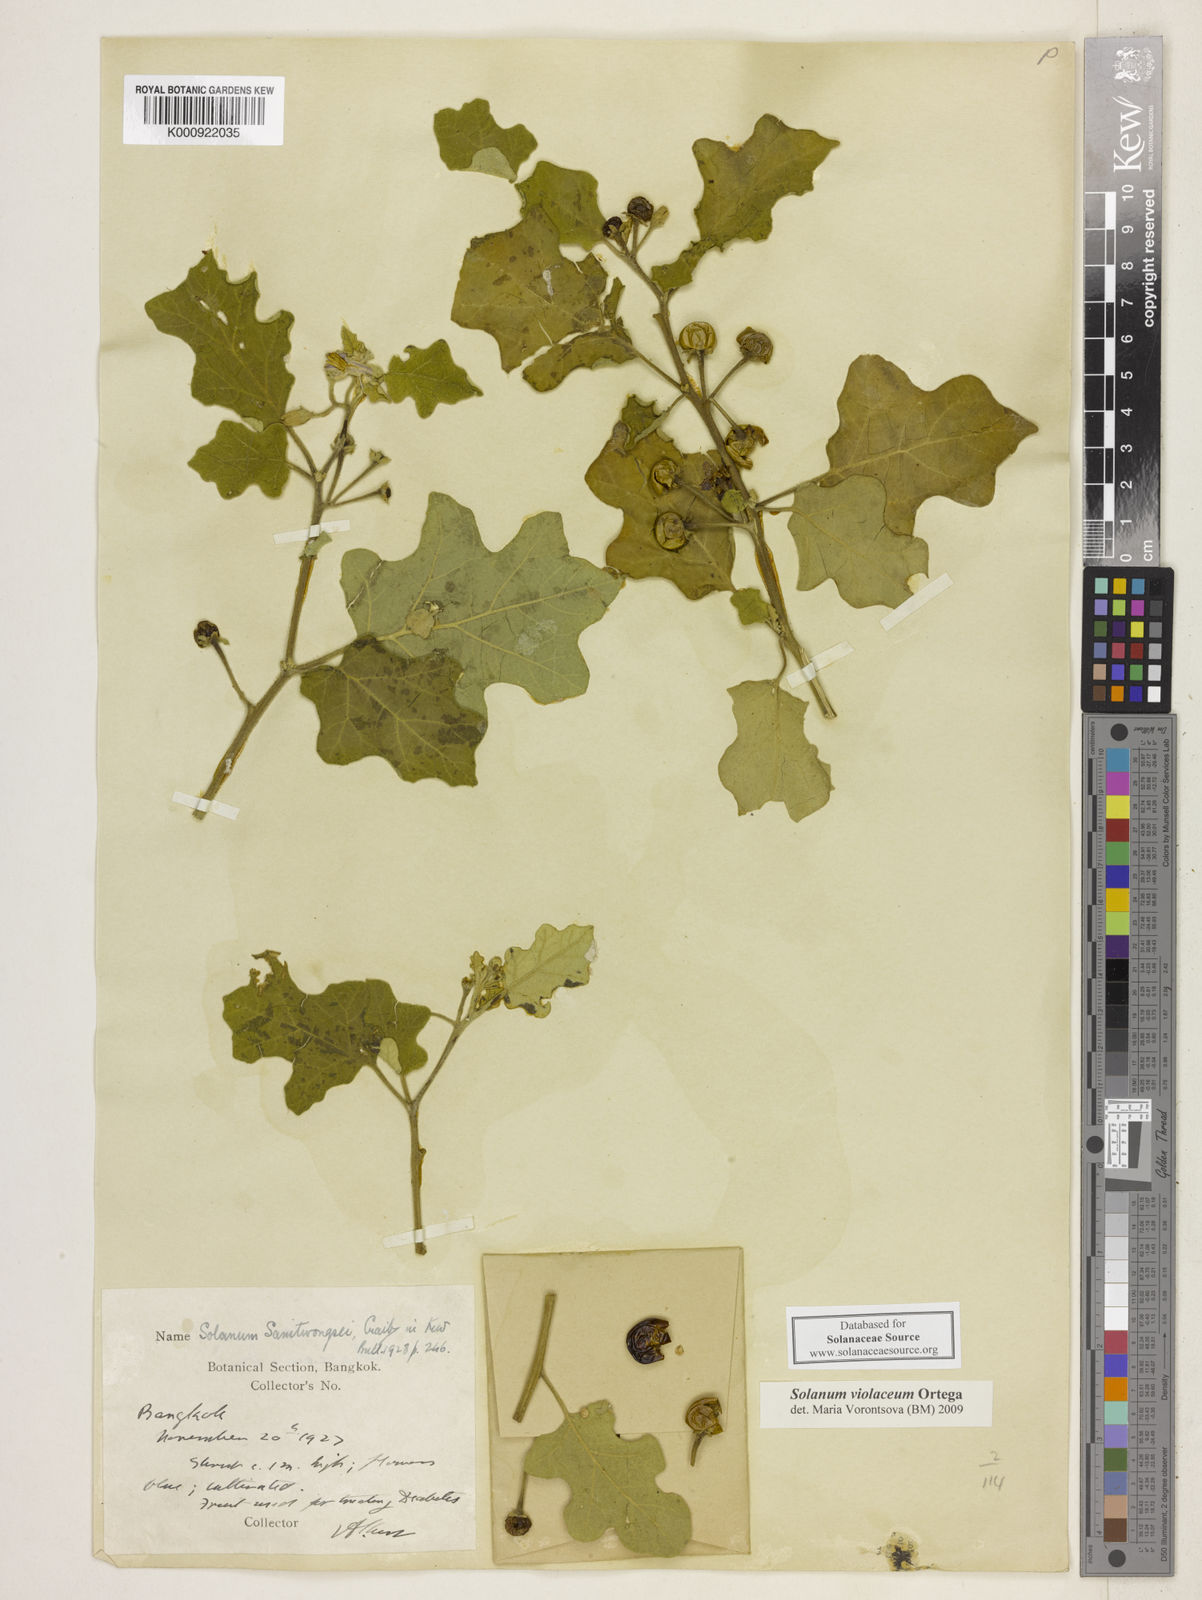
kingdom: Plantae
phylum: Tracheophyta
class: Magnoliopsida
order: Solanales
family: Solanaceae
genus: Solanum
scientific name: Solanum violaceum
